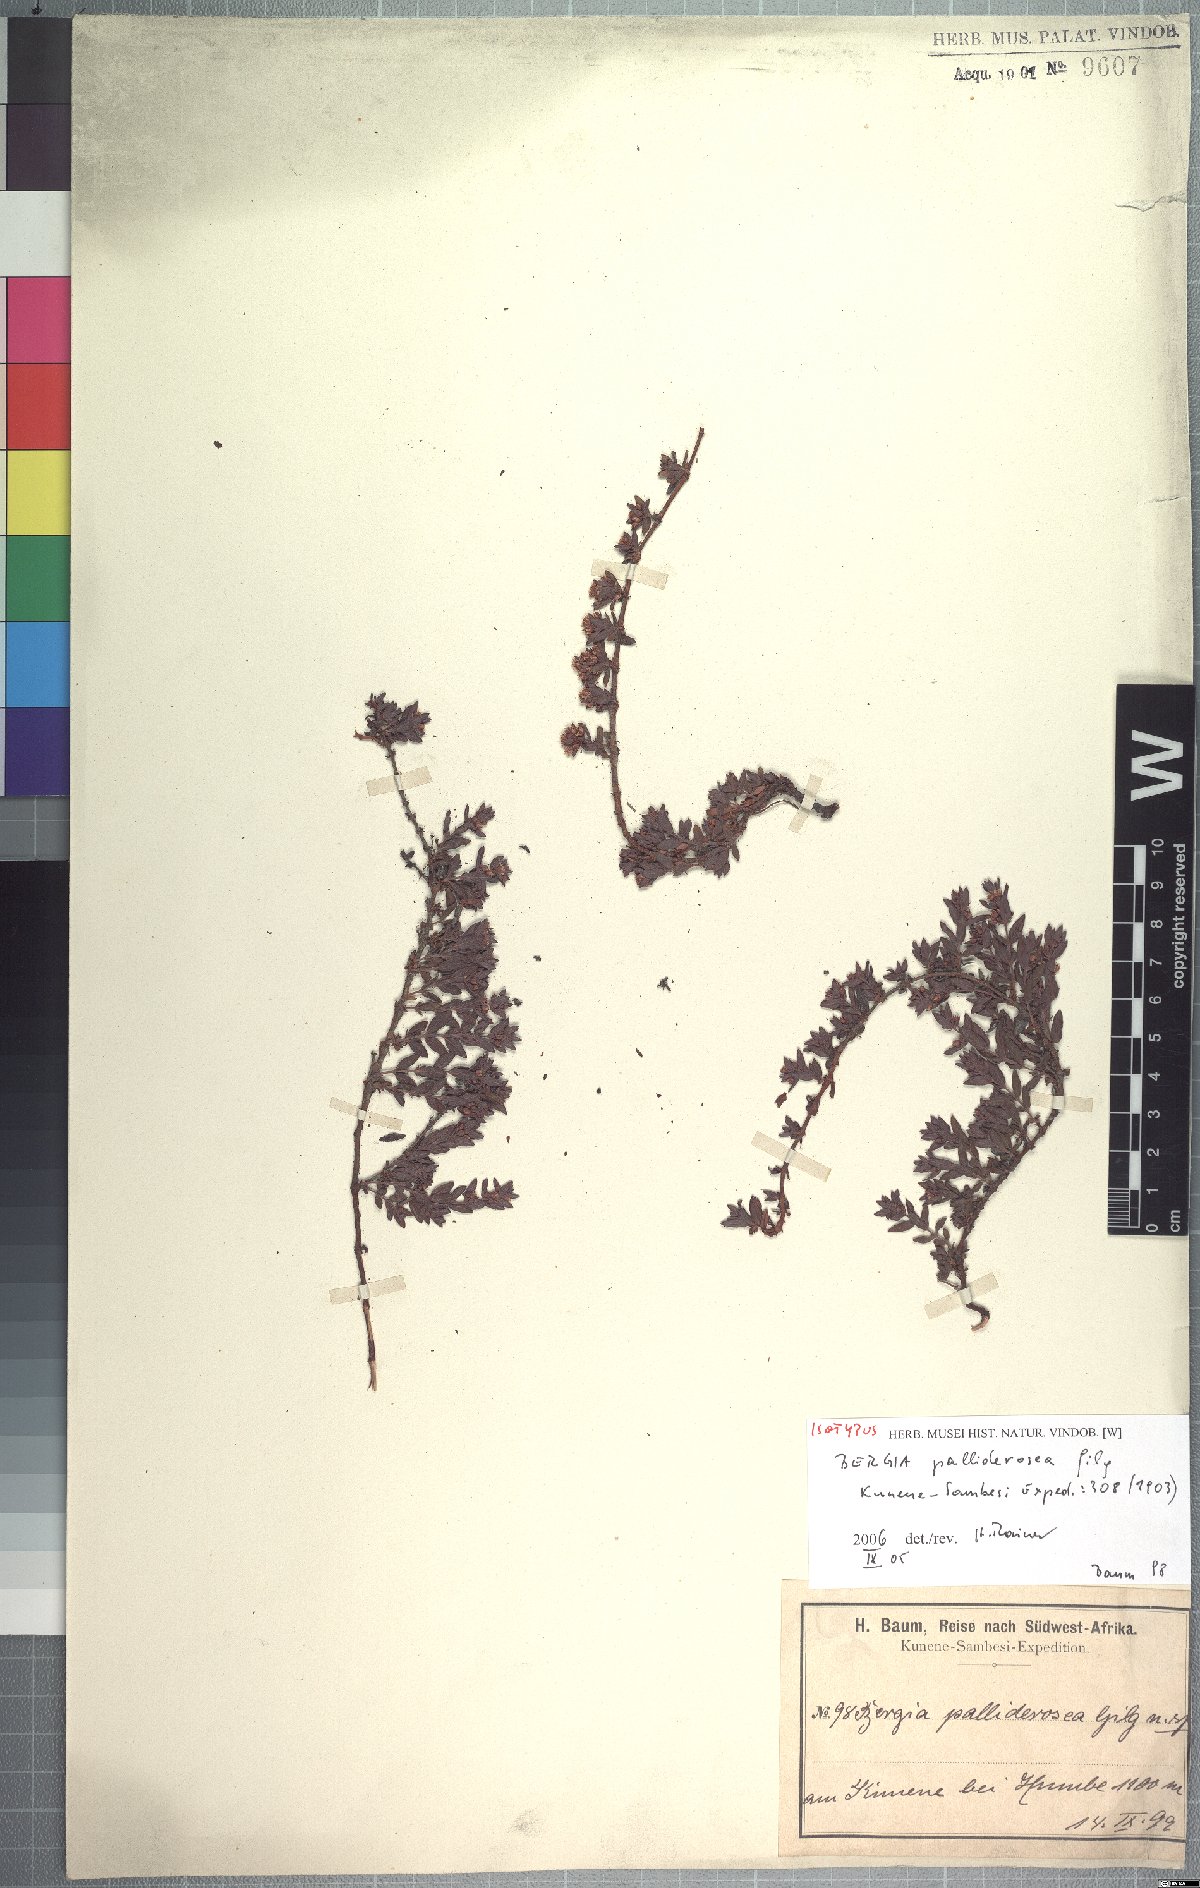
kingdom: Plantae
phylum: Tracheophyta
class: Magnoliopsida
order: Malpighiales
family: Elatinaceae
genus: Bergia
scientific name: Bergia pentheriana
